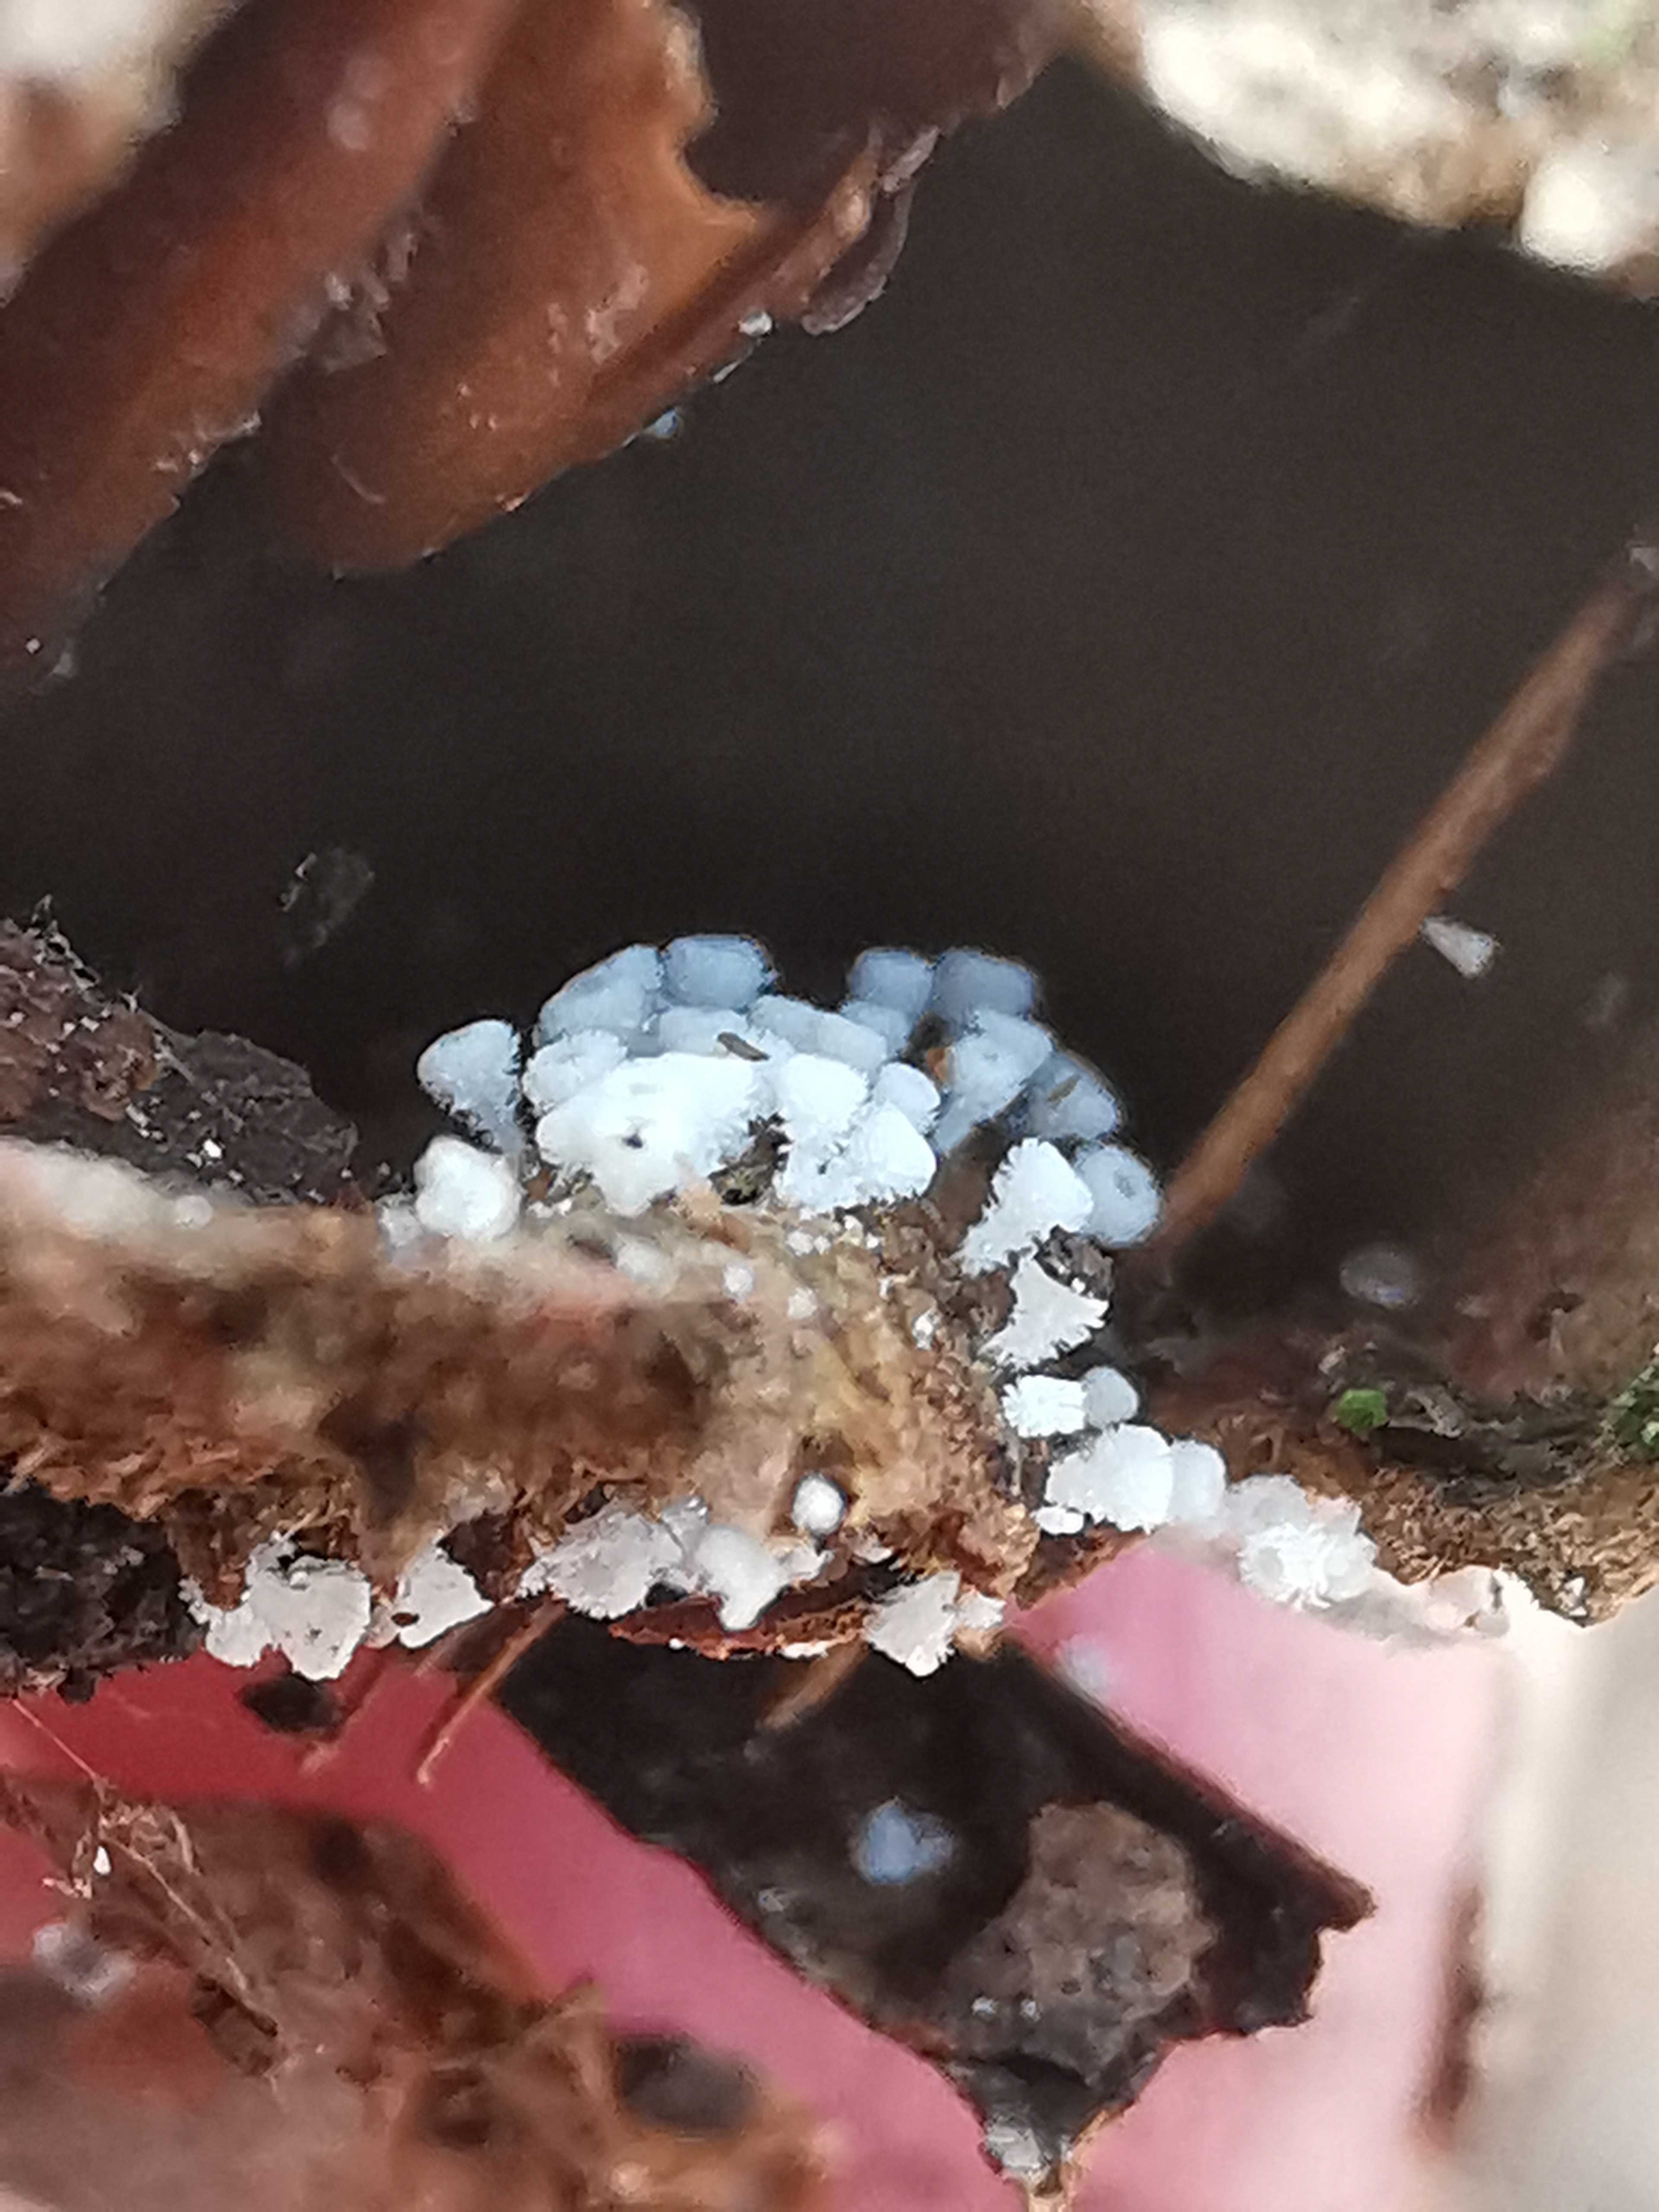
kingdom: Fungi
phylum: Ascomycota
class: Leotiomycetes
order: Helotiales
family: Lachnaceae
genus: Lachnum
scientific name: Lachnum virgineum
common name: jomfru-frynseskive
